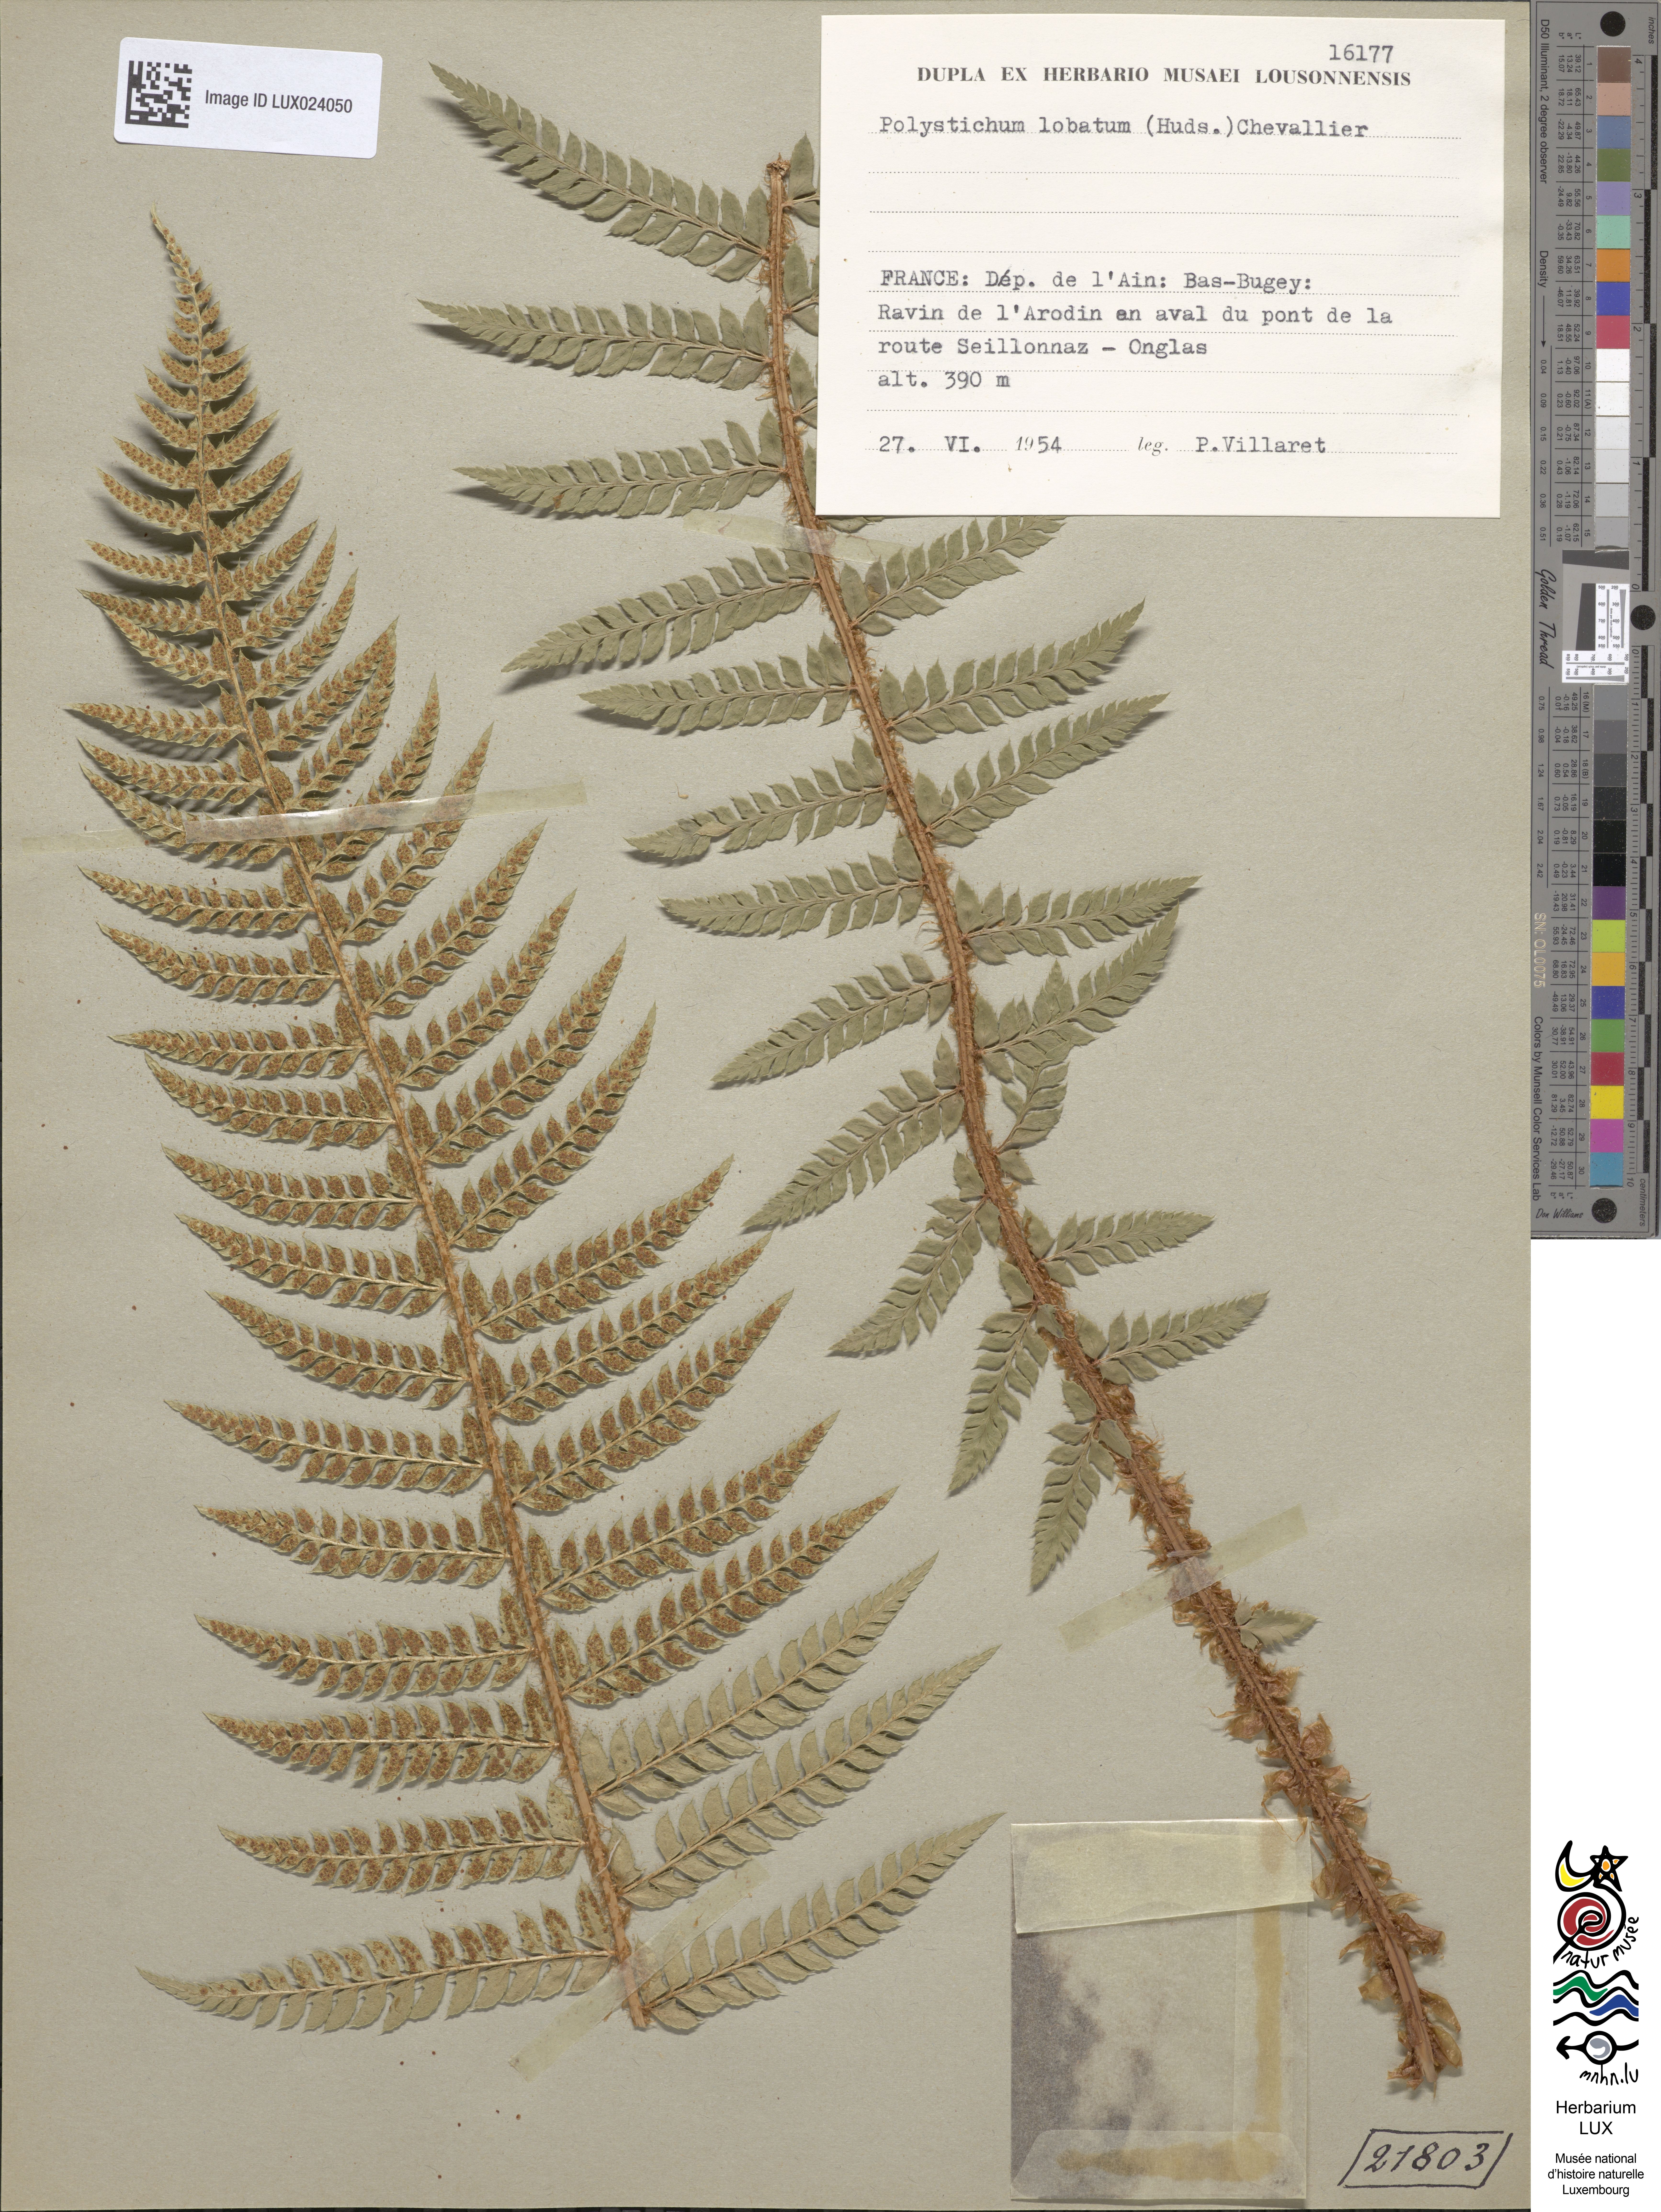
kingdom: Plantae
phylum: Tracheophyta
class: Polypodiopsida
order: Polypodiales
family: Dryopteridaceae
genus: Polystichum
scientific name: Polystichum aculeatum
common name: Hard shield-fern
